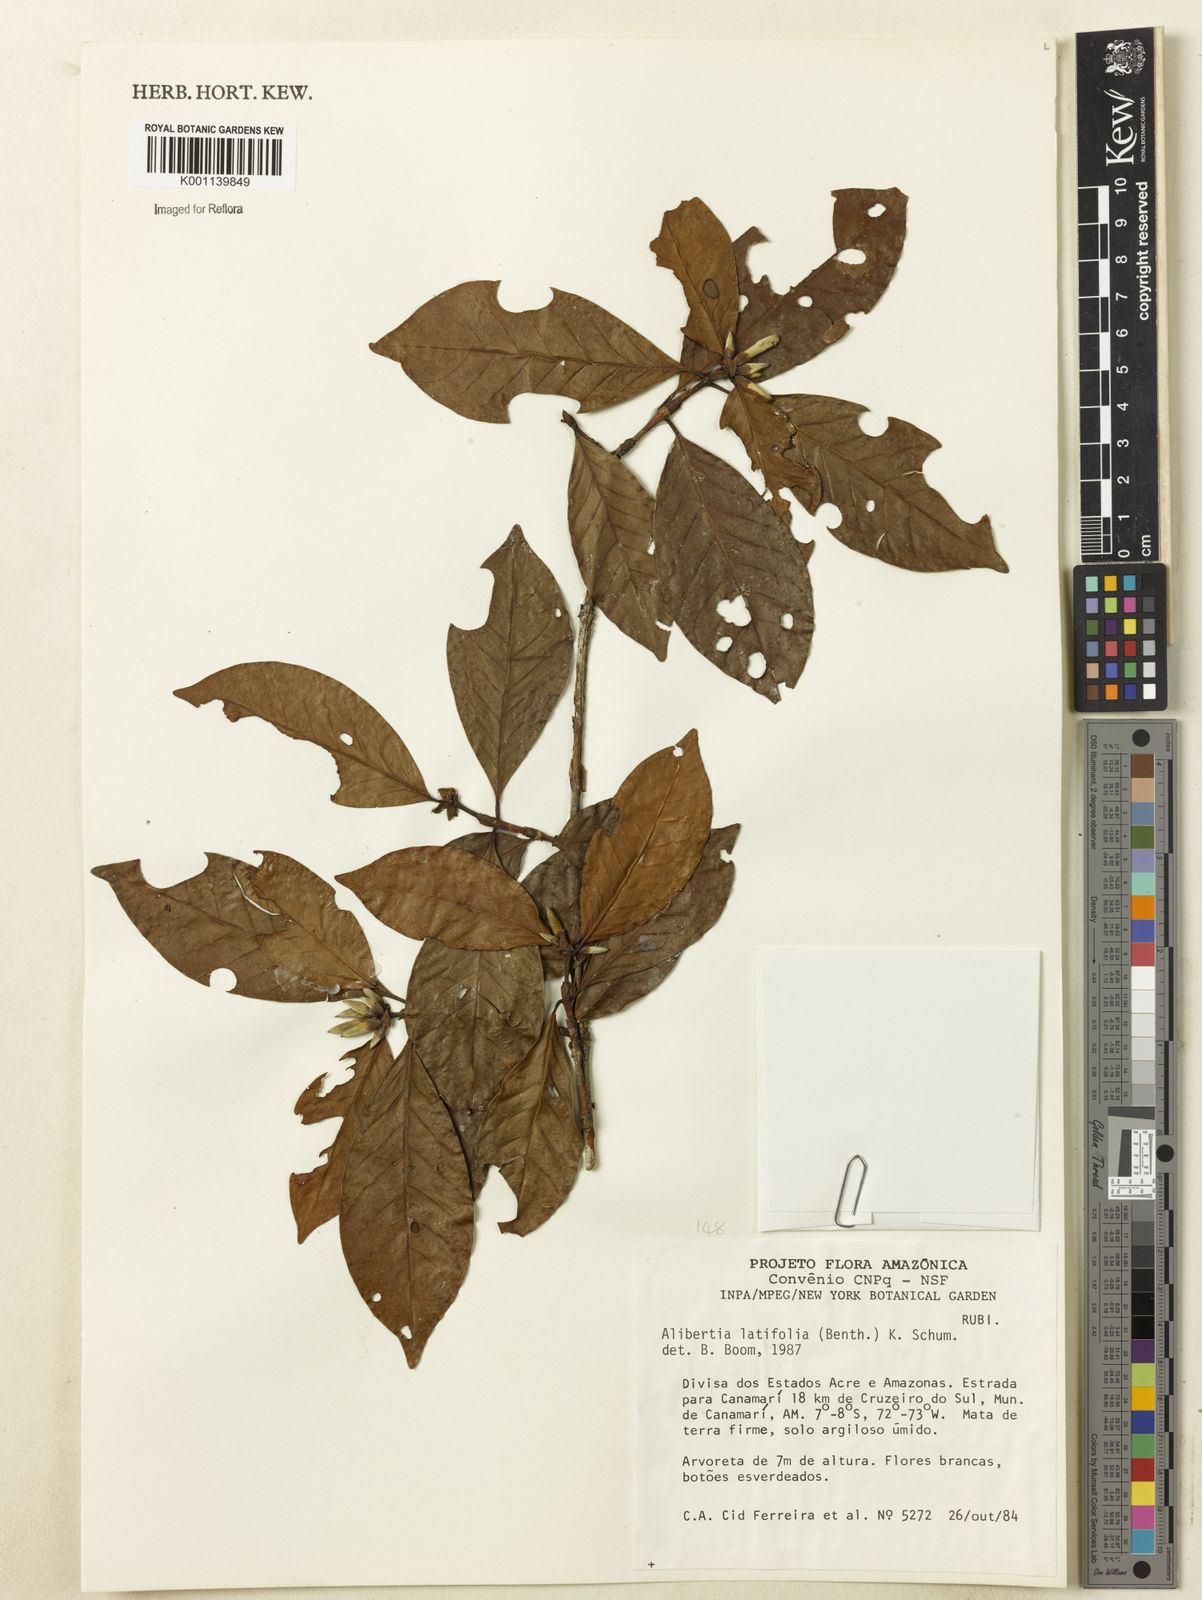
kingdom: Plantae
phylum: Tracheophyta
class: Magnoliopsida
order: Gentianales
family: Rubiaceae
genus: Alibertia
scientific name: Alibertia latifolia
